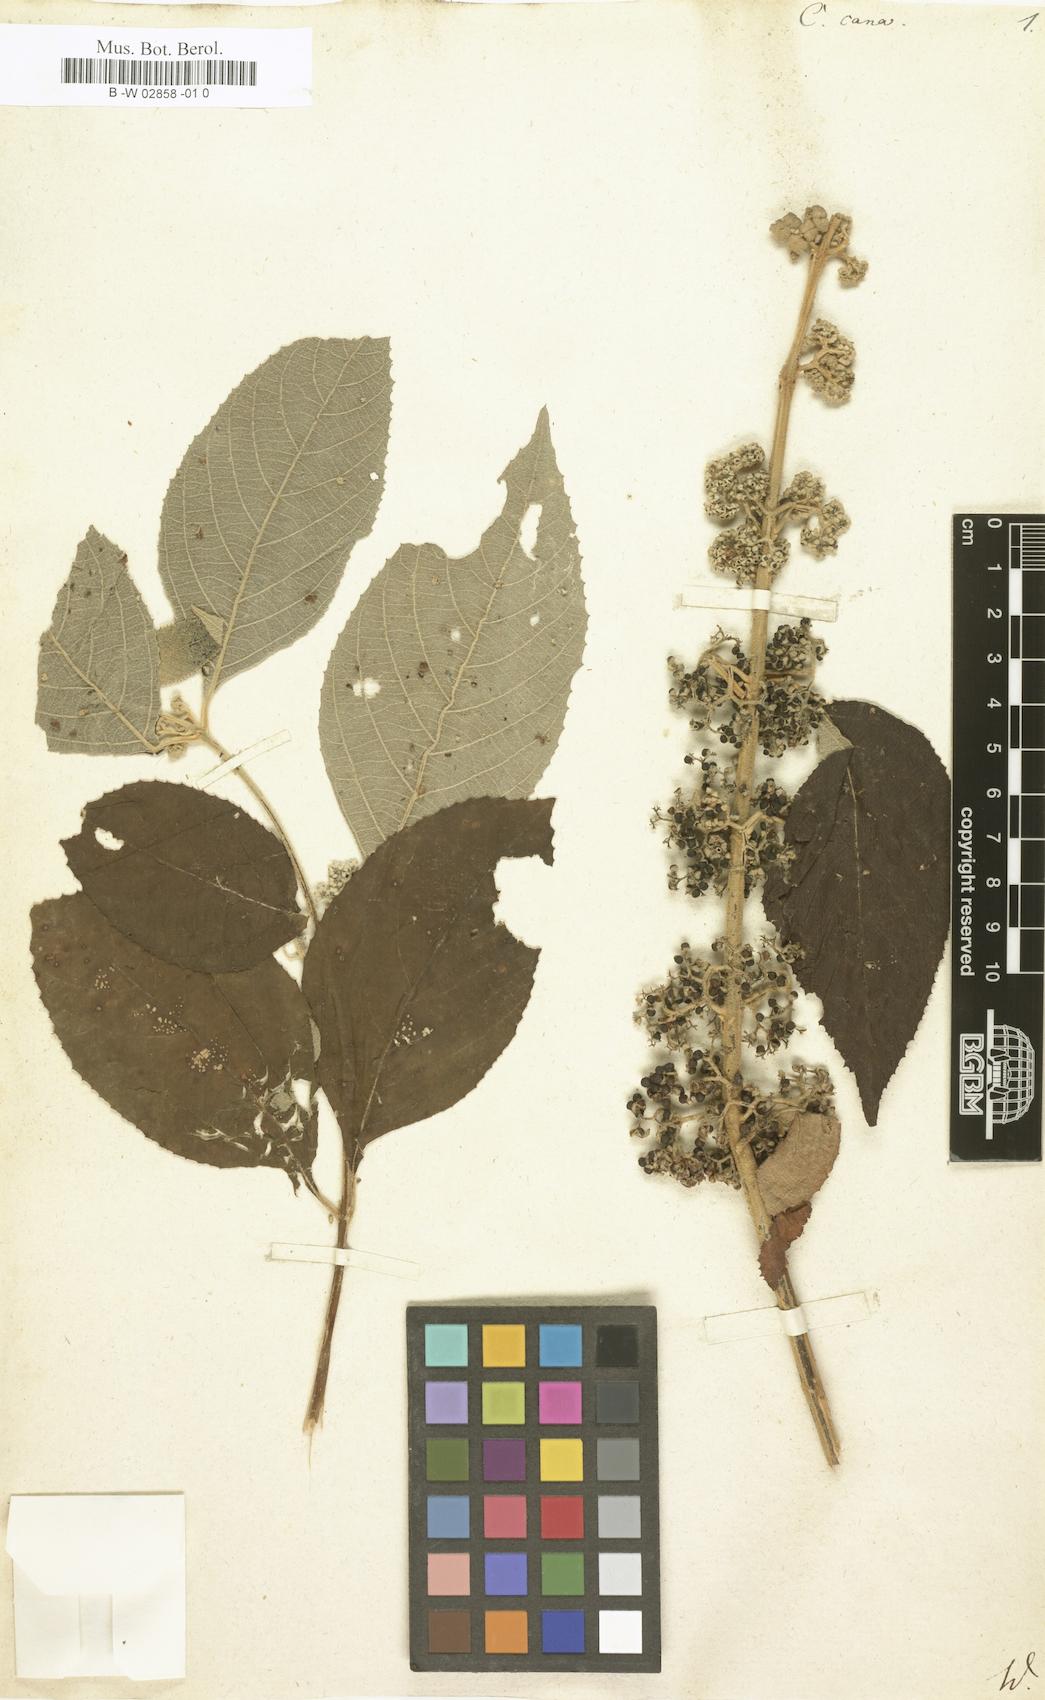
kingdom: Plantae
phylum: Tracheophyta
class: Magnoliopsida
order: Lamiales
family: Lamiaceae
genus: Callicarpa
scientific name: Callicarpa cana
